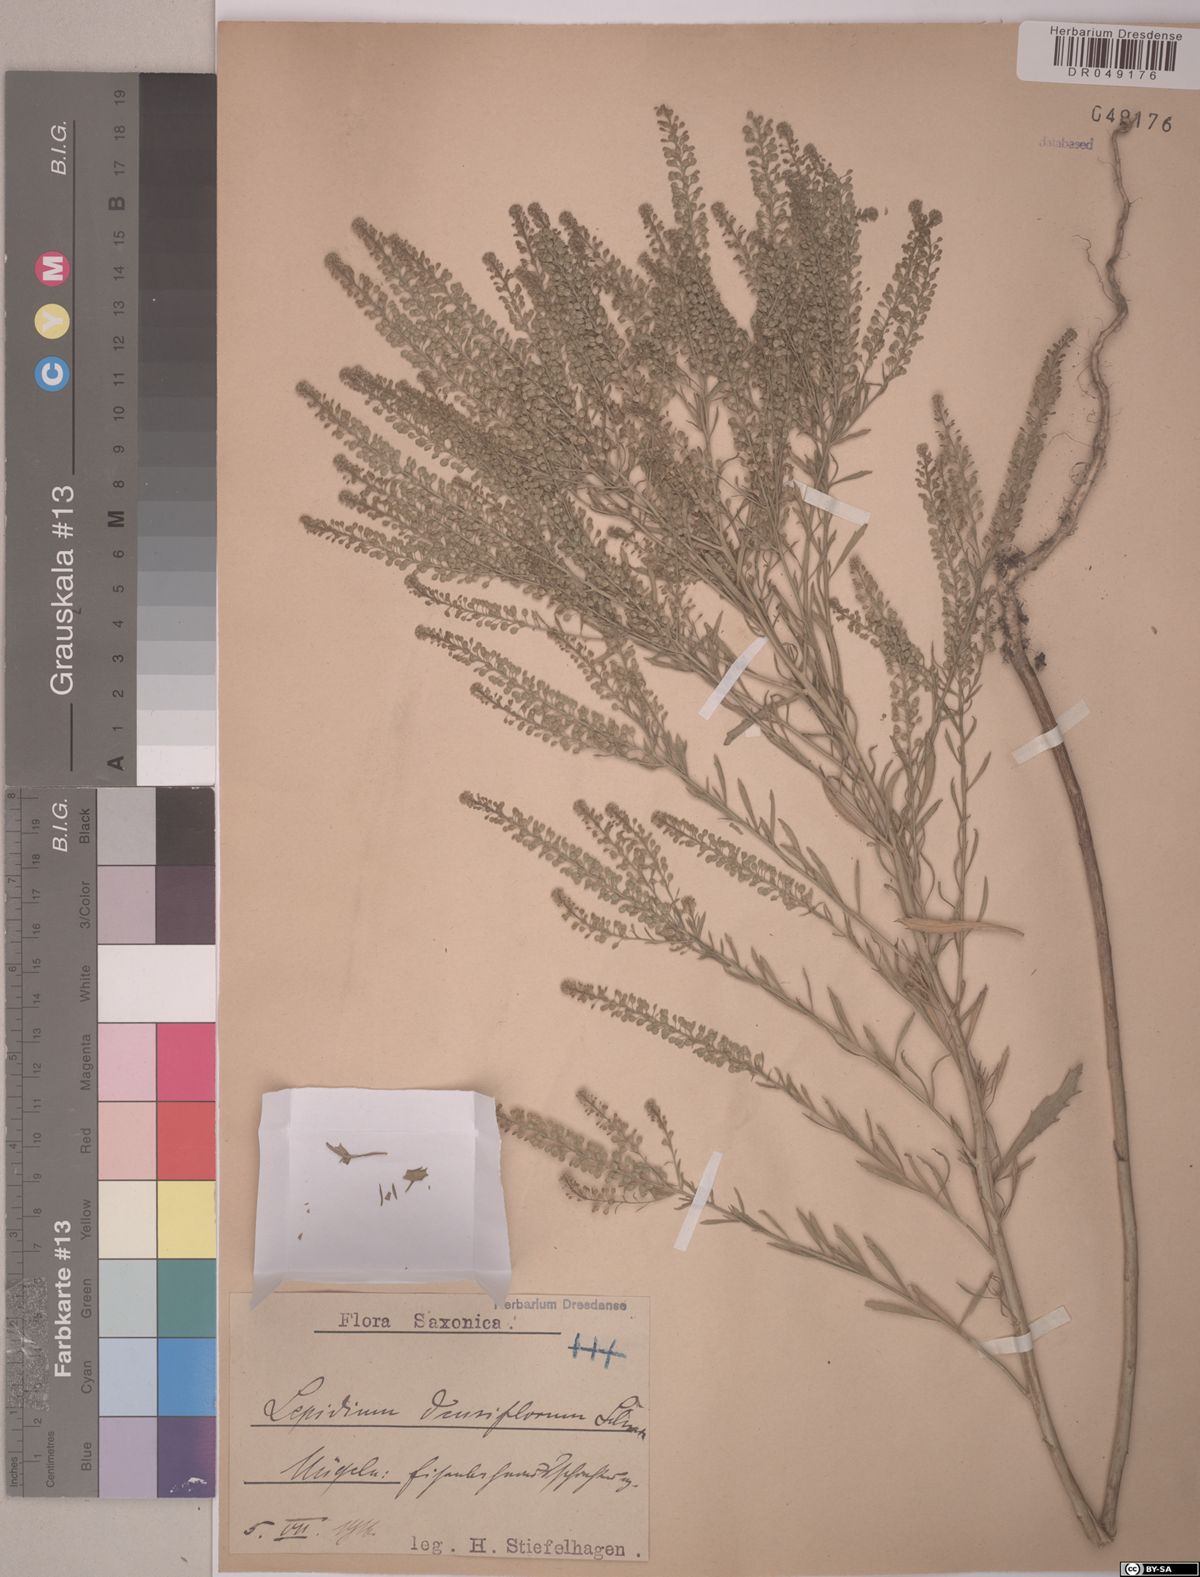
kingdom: Plantae
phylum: Tracheophyta
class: Magnoliopsida
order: Brassicales
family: Brassicaceae
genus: Lepidium
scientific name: Lepidium densiflorum
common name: Miner's pepperwort
